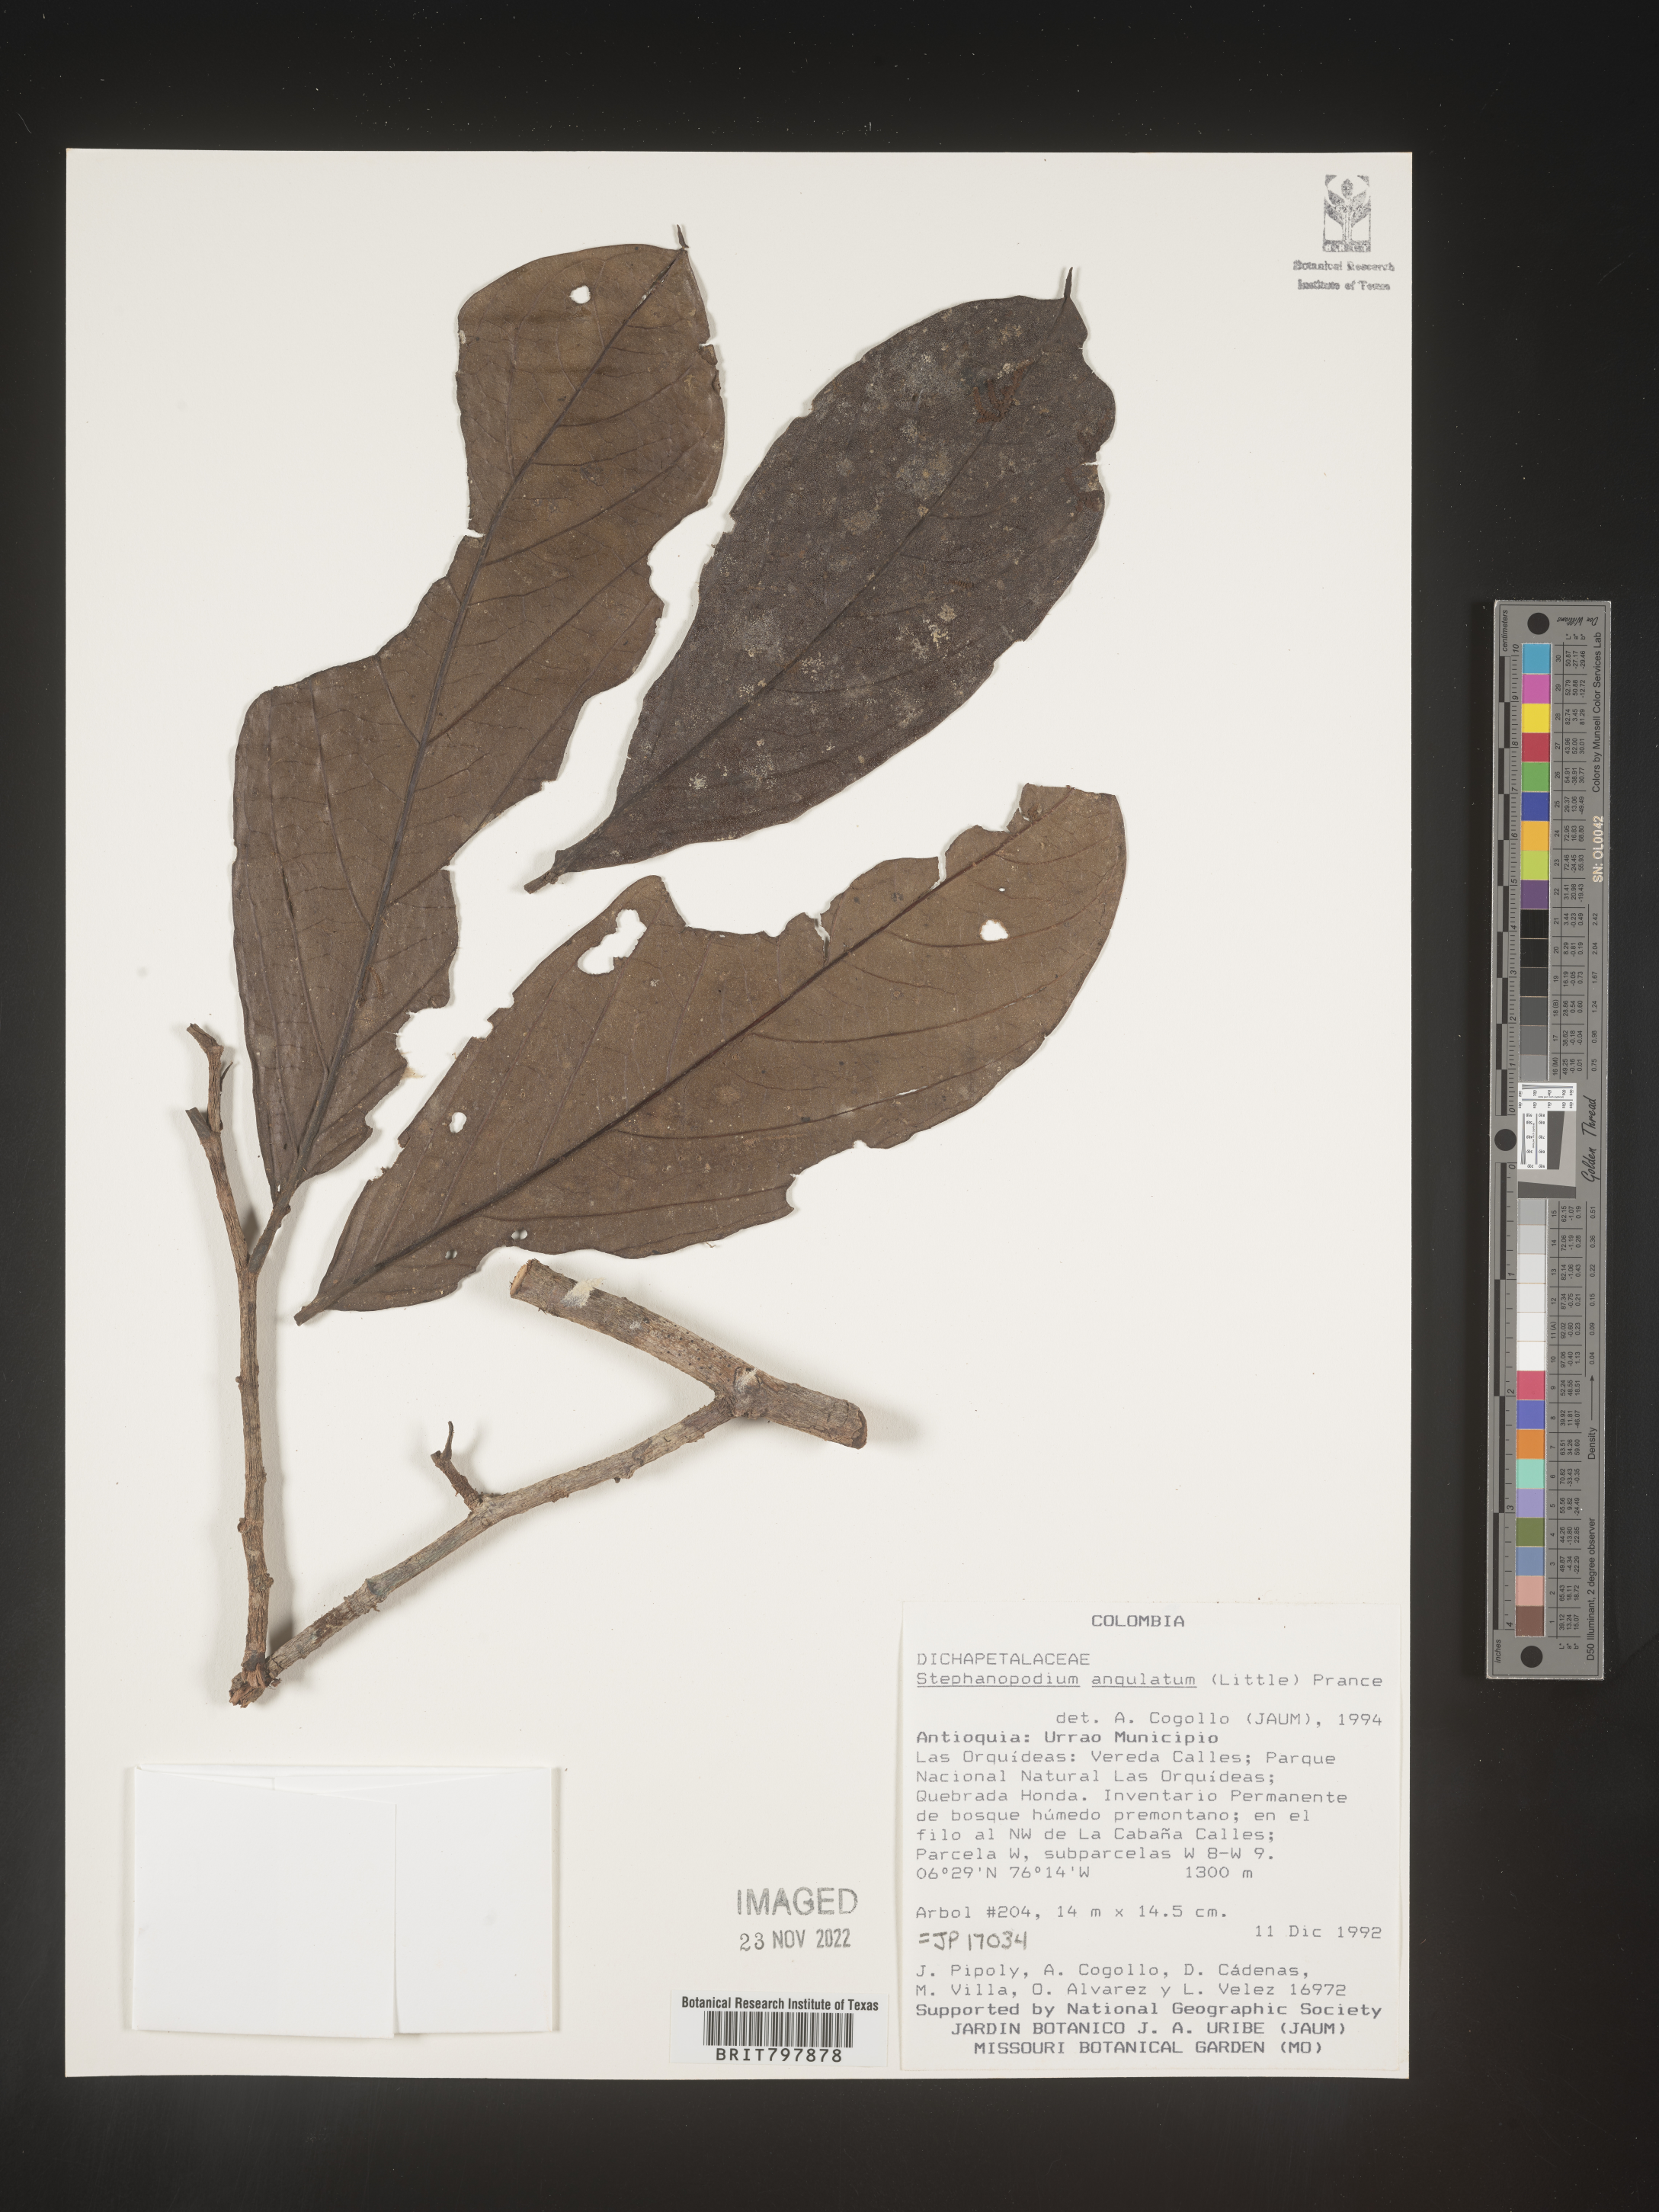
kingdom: Plantae
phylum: Tracheophyta
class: Magnoliopsida
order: Malpighiales
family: Dichapetalaceae
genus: Stephanopodium
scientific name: Stephanopodium
